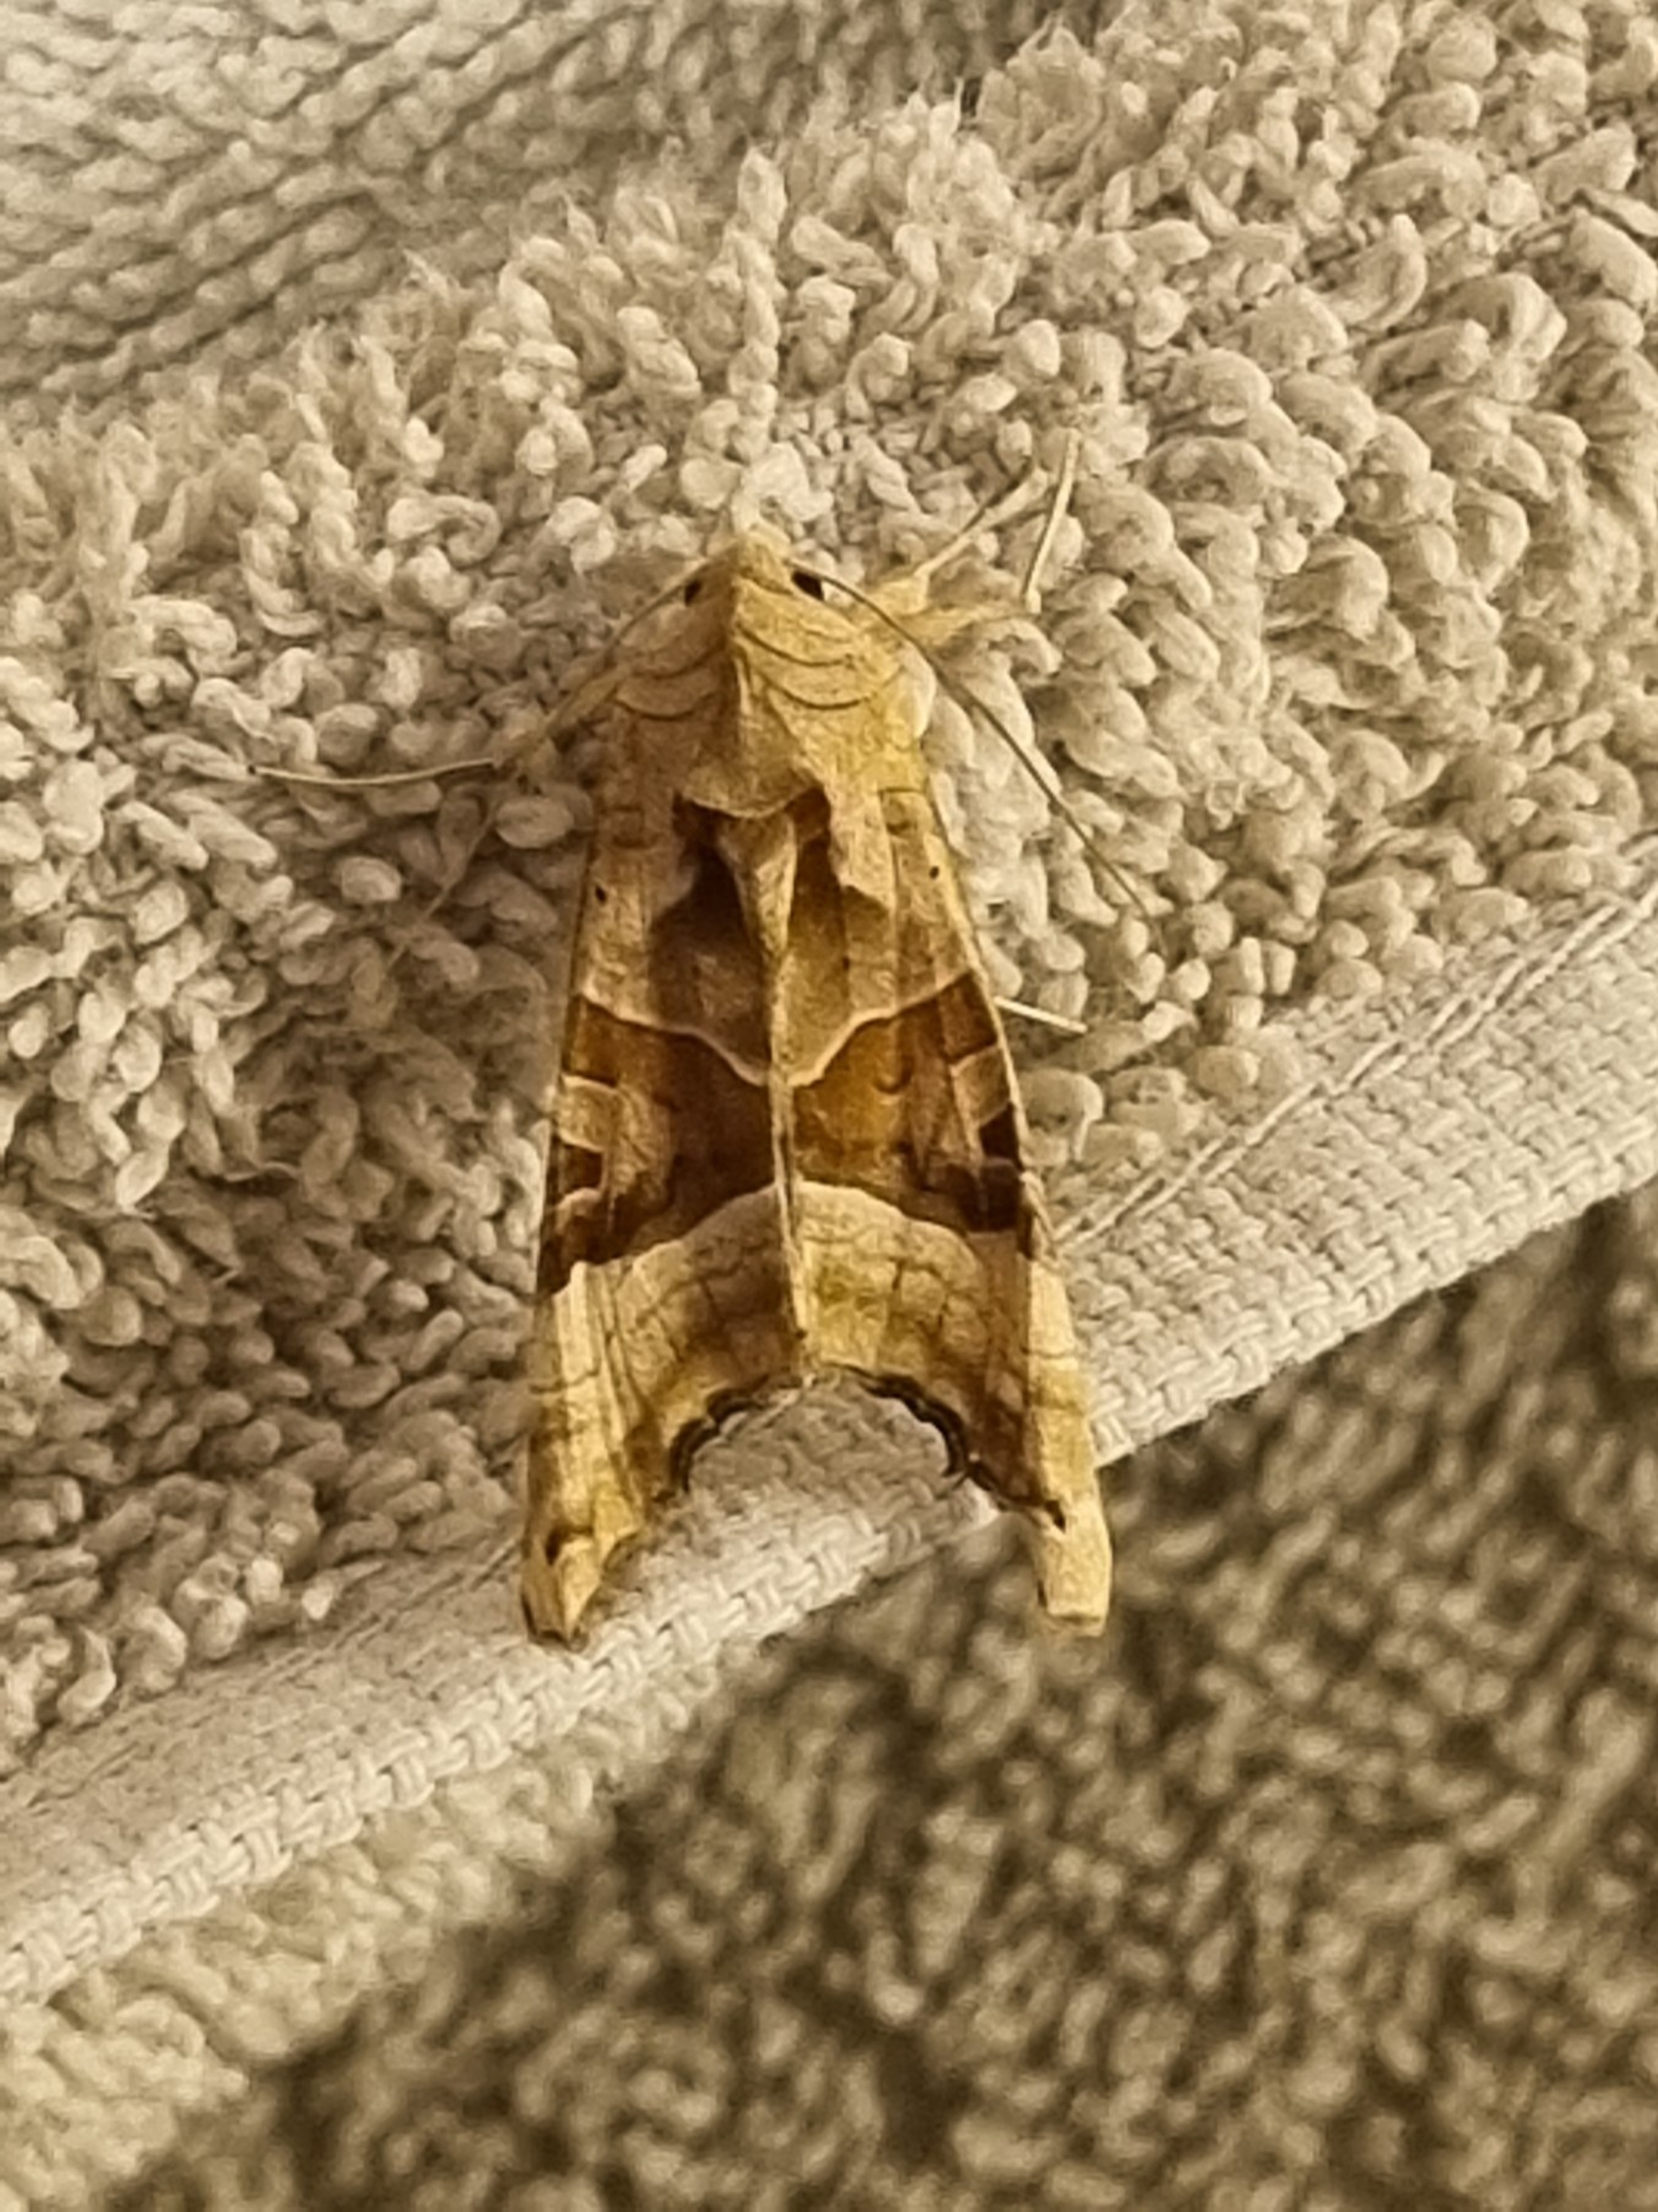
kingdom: Animalia
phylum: Arthropoda
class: Insecta
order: Lepidoptera
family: Noctuidae
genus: Phlogophora
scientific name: Phlogophora meticulosa
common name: Agatugle
